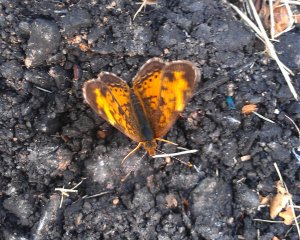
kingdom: Animalia
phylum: Arthropoda
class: Insecta
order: Lepidoptera
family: Nymphalidae
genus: Phyciodes
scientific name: Phyciodes tharos
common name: Northern Crescent
